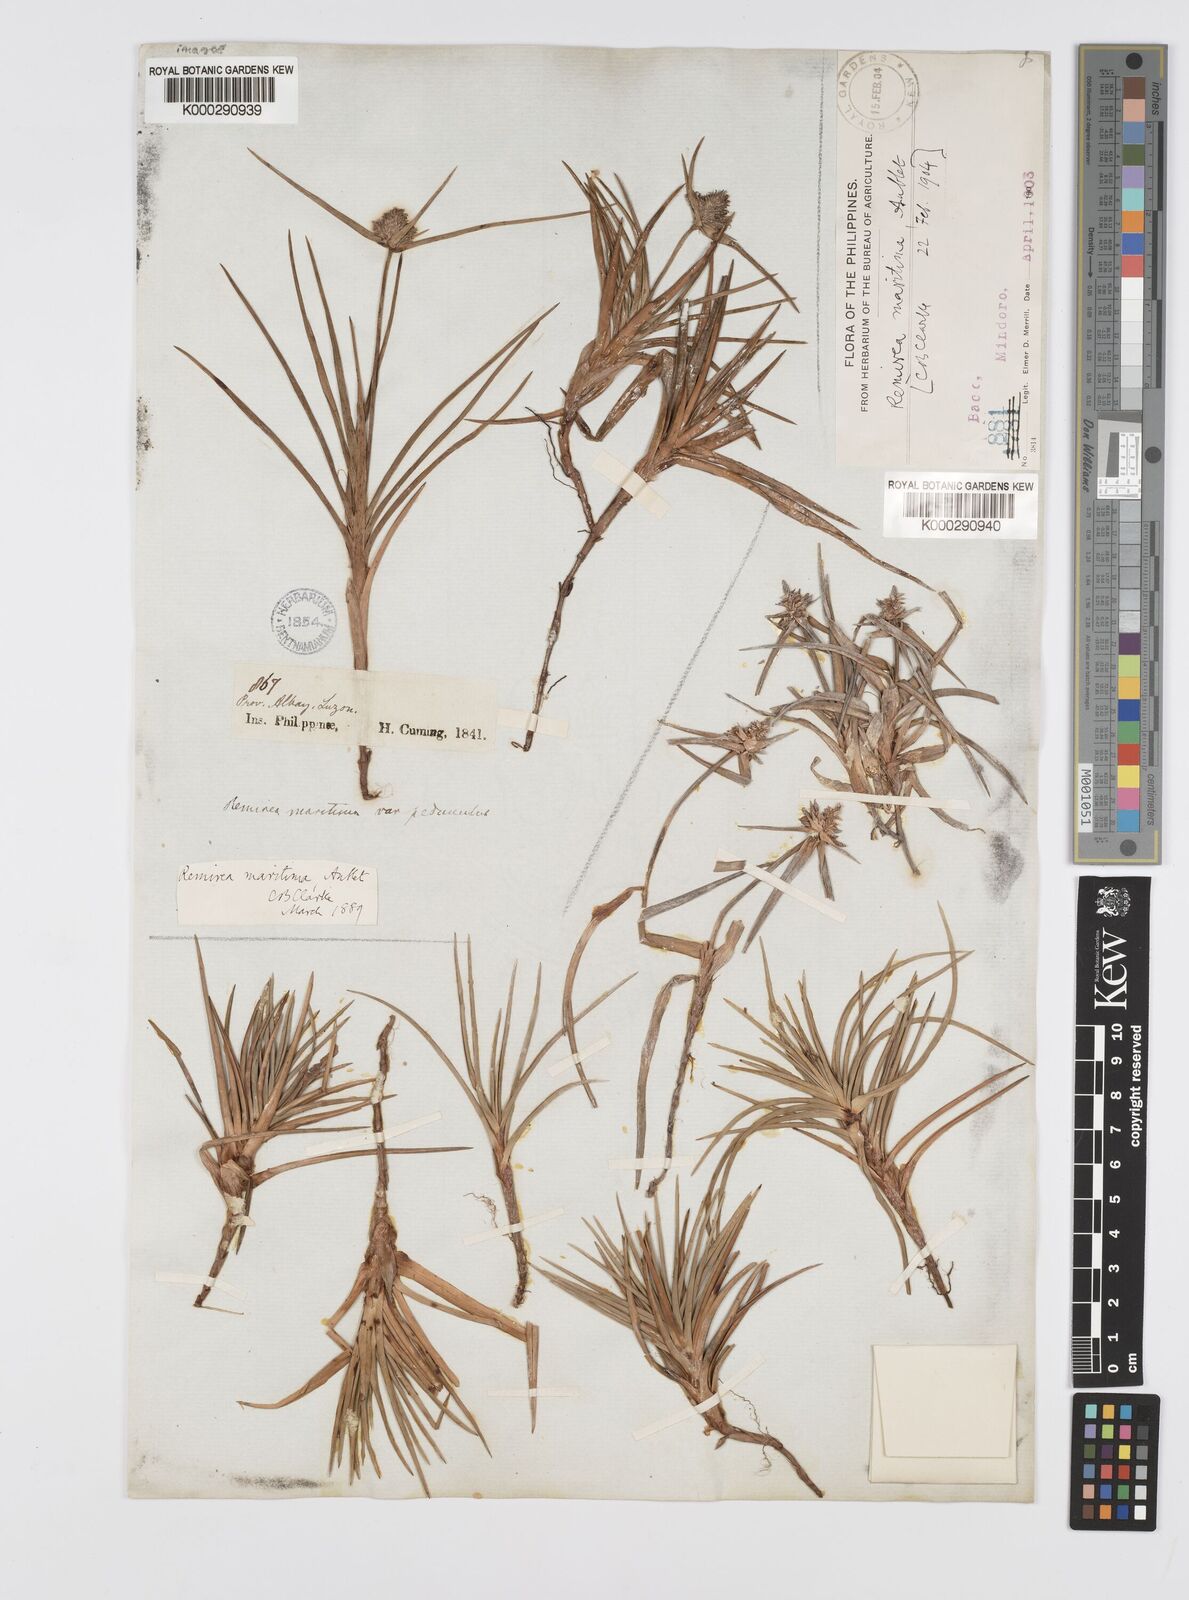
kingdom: Plantae
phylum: Tracheophyta
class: Liliopsida
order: Poales
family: Cyperaceae
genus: Cyperus
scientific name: Cyperus pedunculatus
